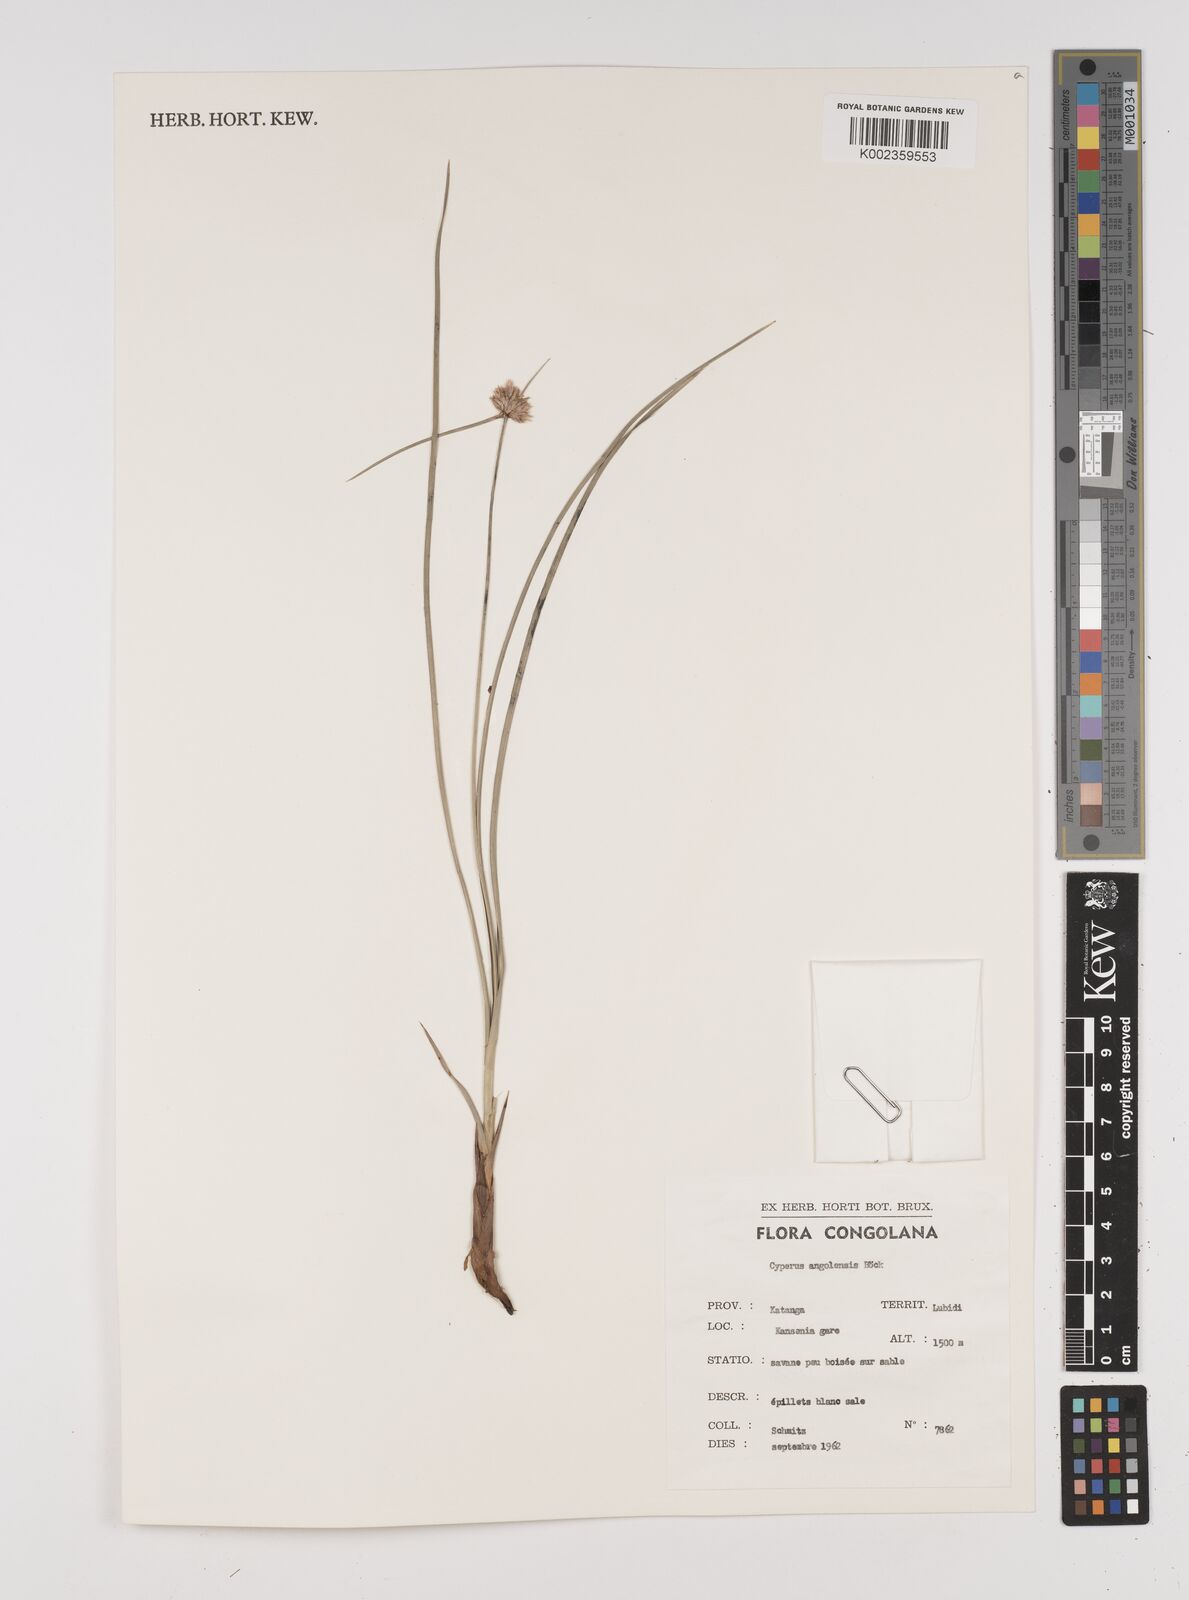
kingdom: Plantae
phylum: Tracheophyta
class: Liliopsida
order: Poales
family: Cyperaceae
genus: Cyperus
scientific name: Cyperus angolensis
